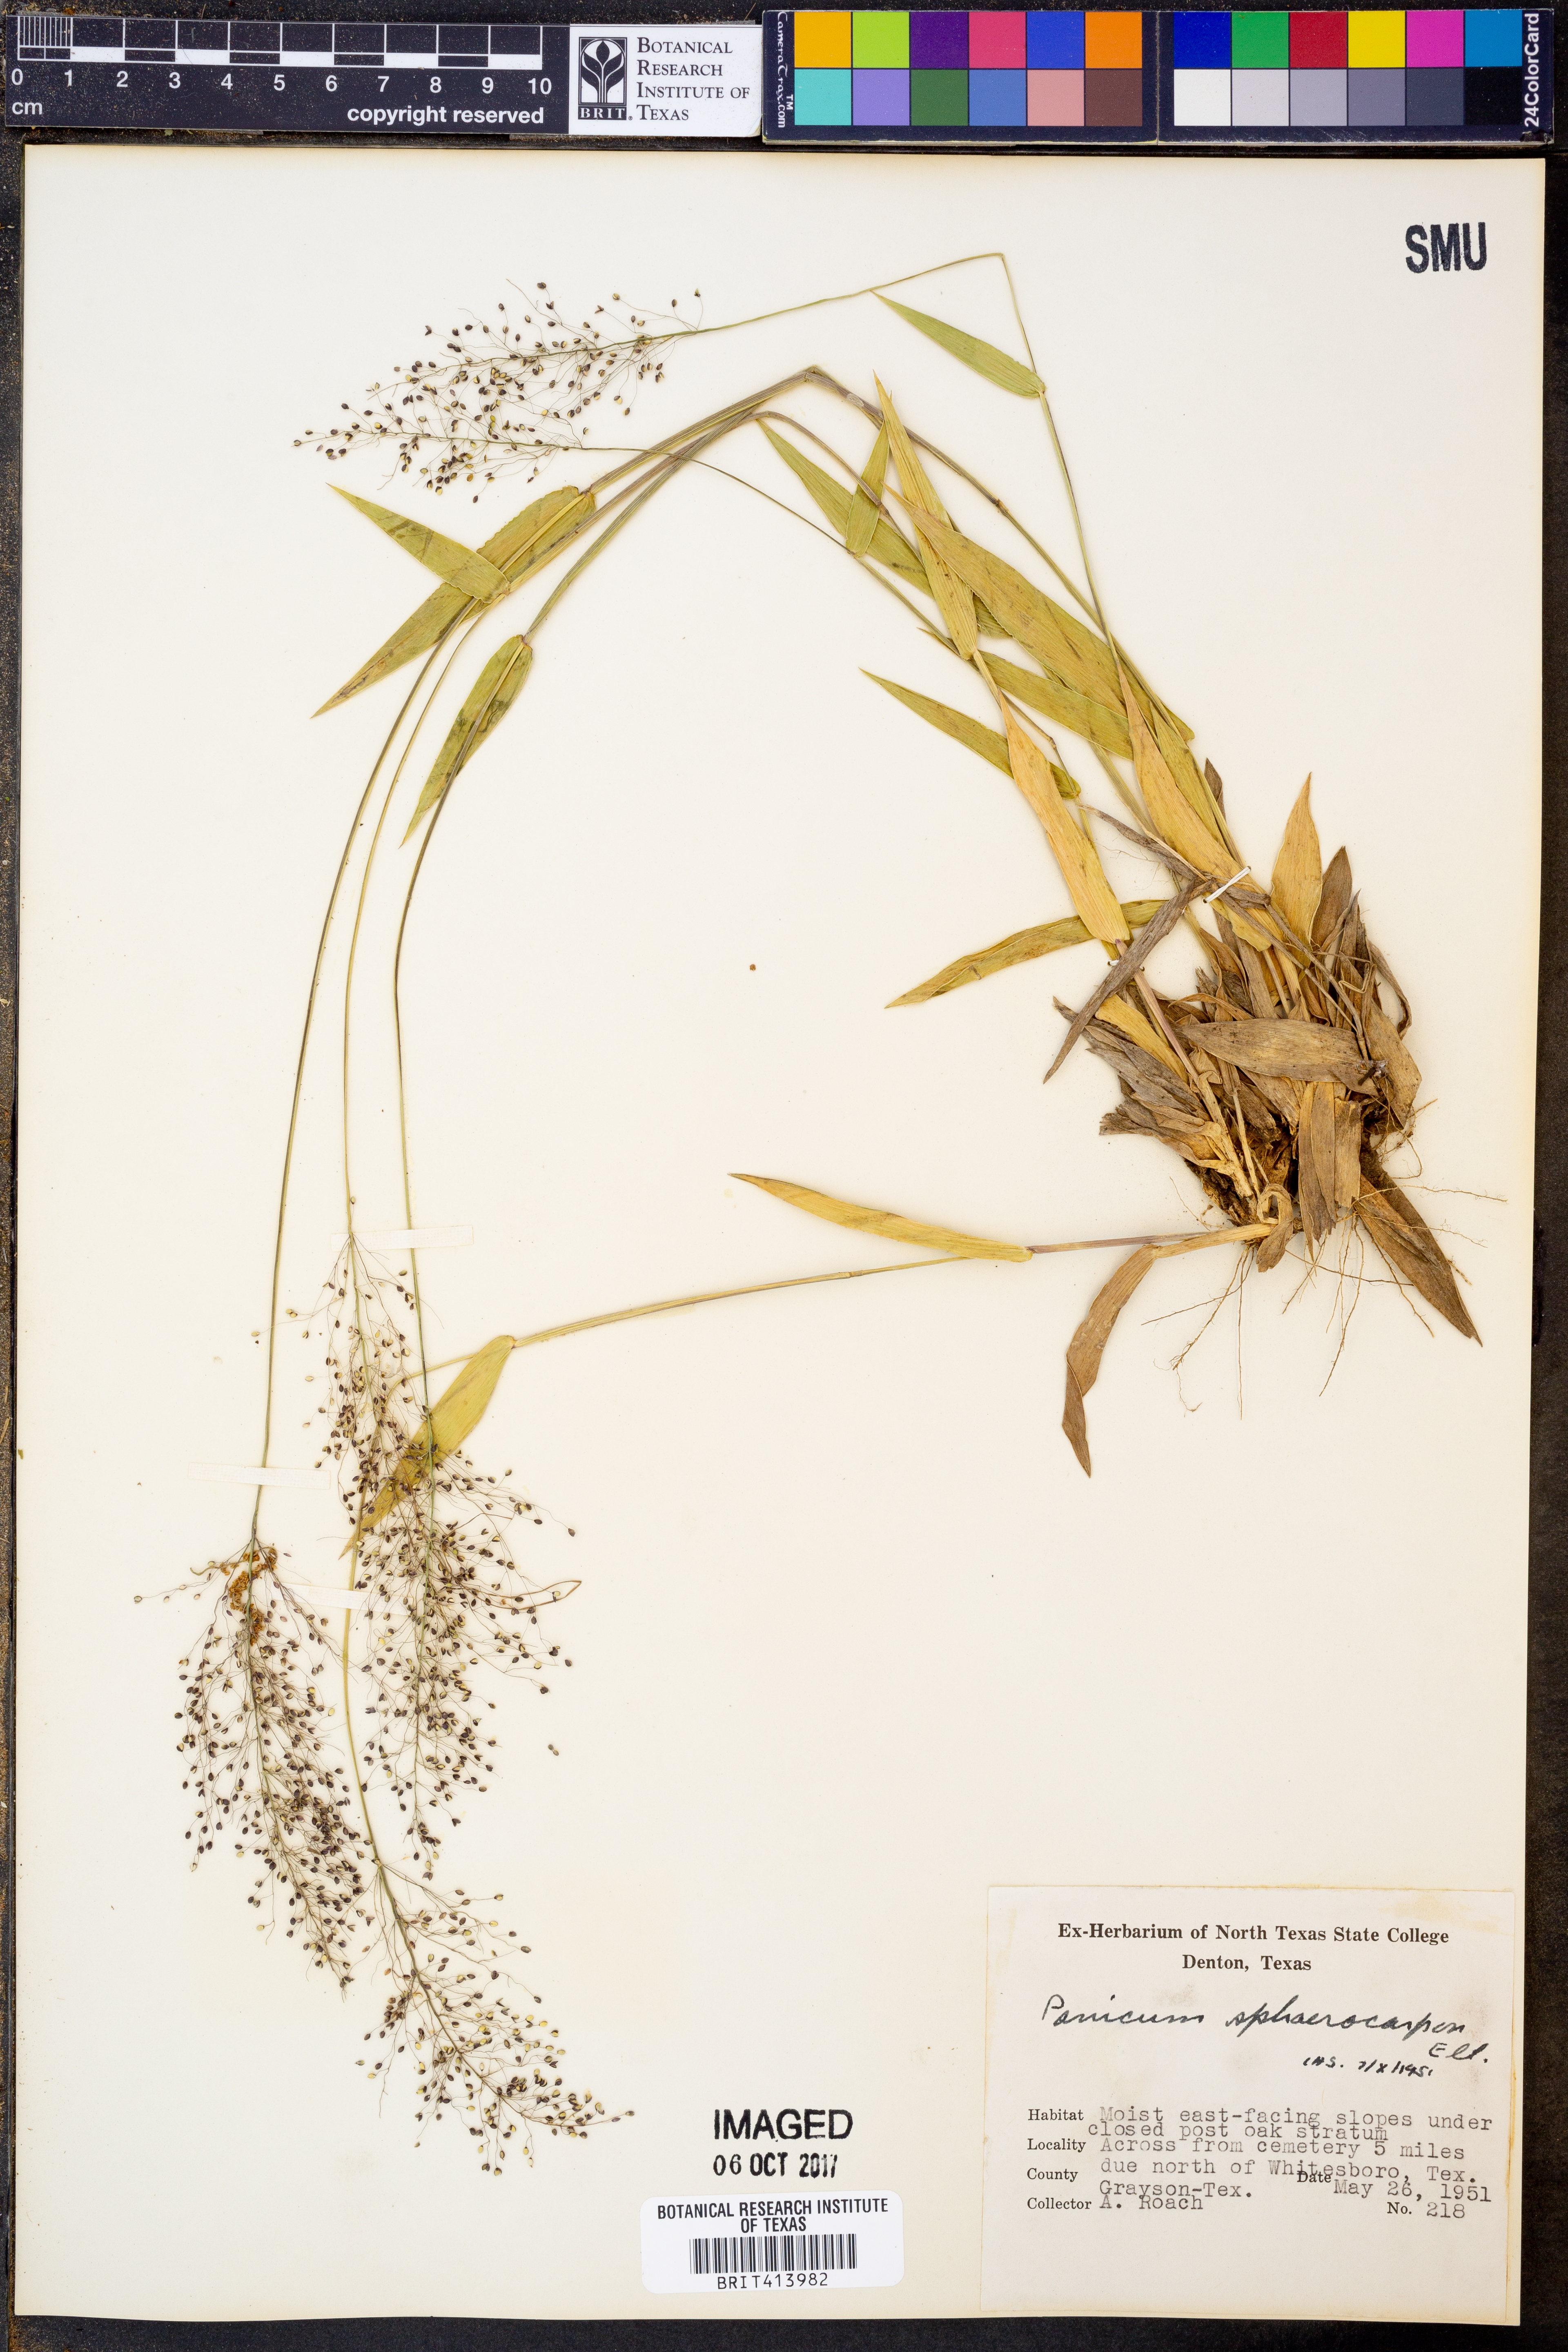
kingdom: Plantae
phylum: Tracheophyta
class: Liliopsida
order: Poales
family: Poaceae
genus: Dichanthelium
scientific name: Dichanthelium sphaerocarpon
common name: Round-fruited panicgrass
